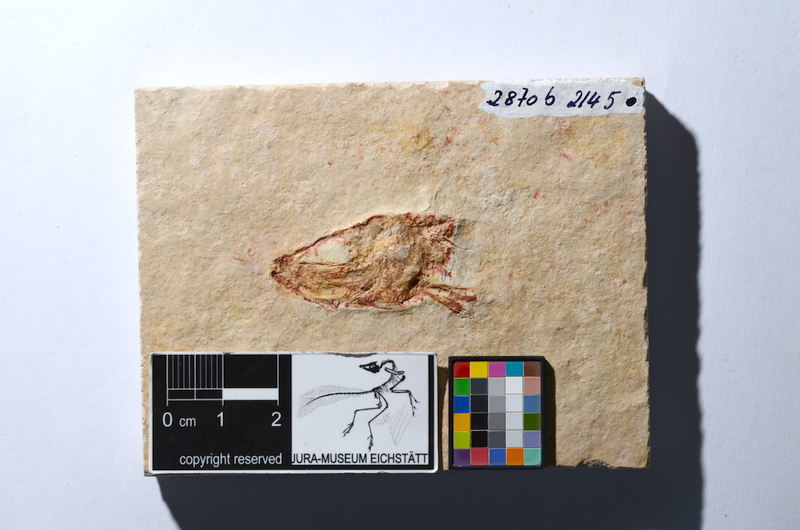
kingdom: Animalia
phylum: Chordata
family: Ascalaboidae
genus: Tharsis
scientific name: Tharsis dubius
